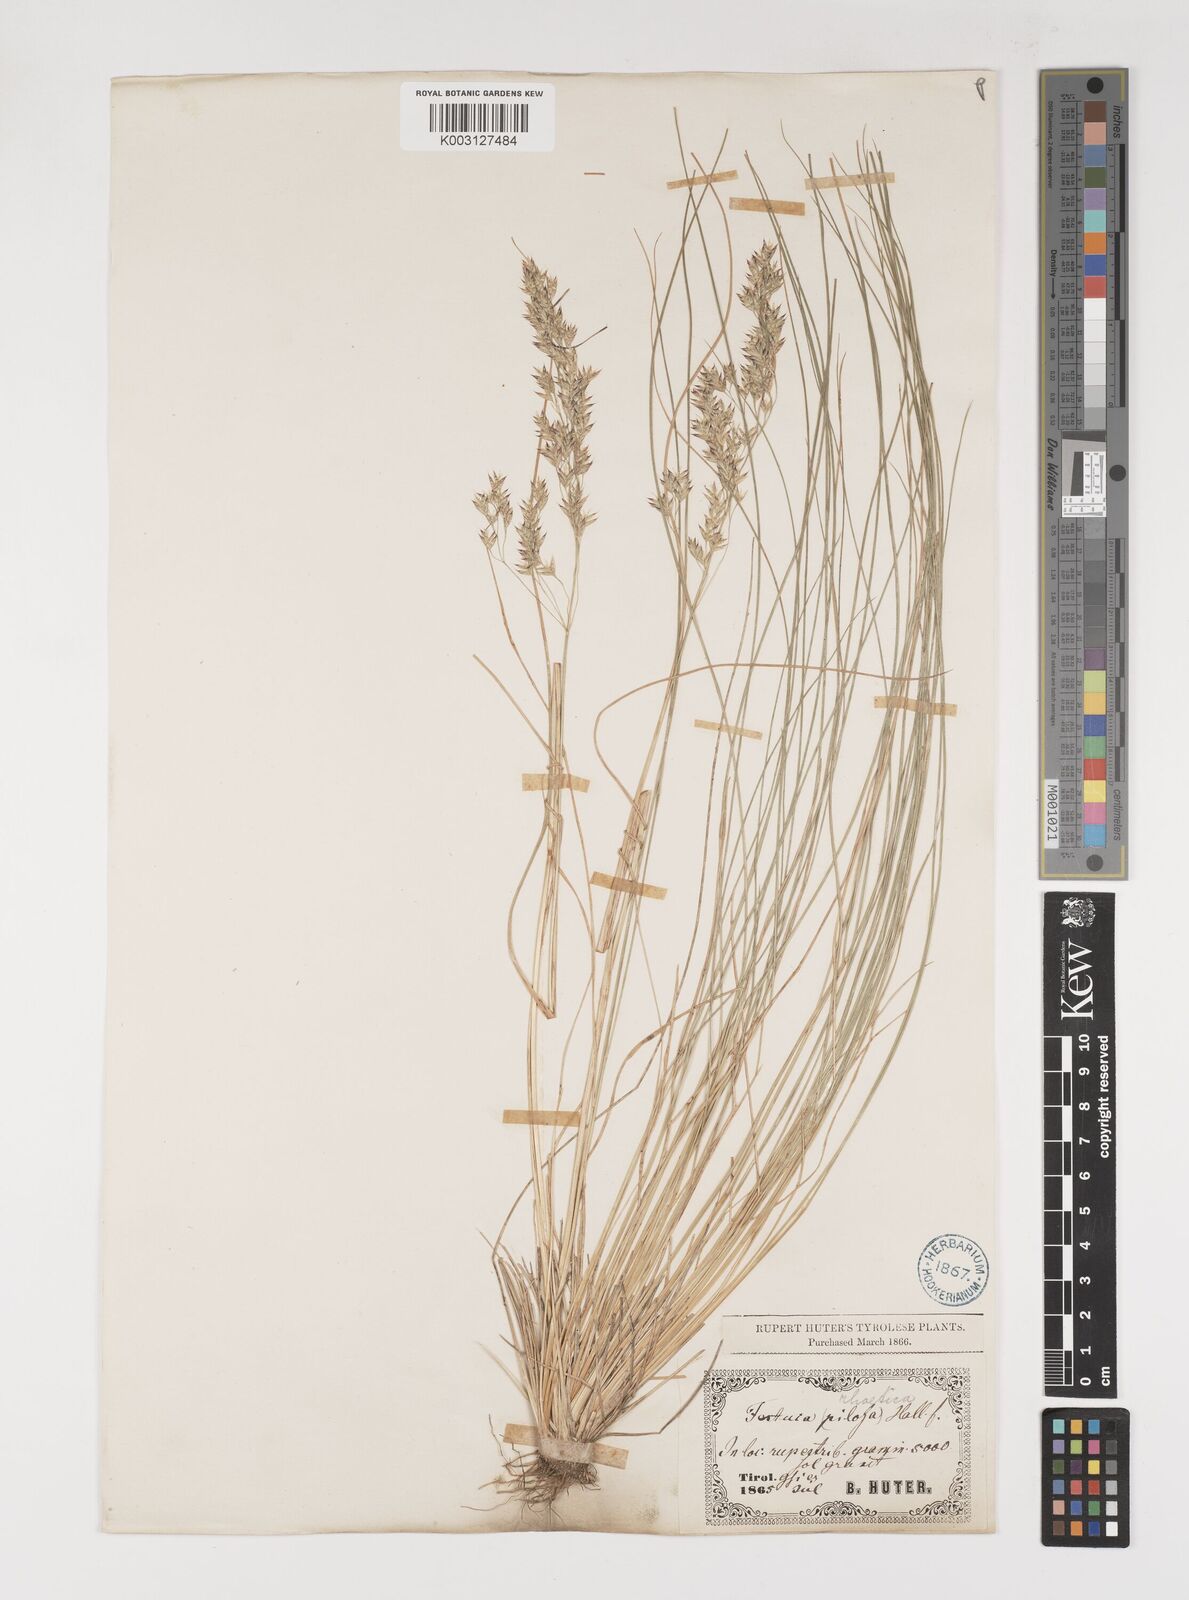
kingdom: Plantae
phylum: Tracheophyta
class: Liliopsida
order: Poales
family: Poaceae
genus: Bellardiochloa
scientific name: Bellardiochloa variegata
